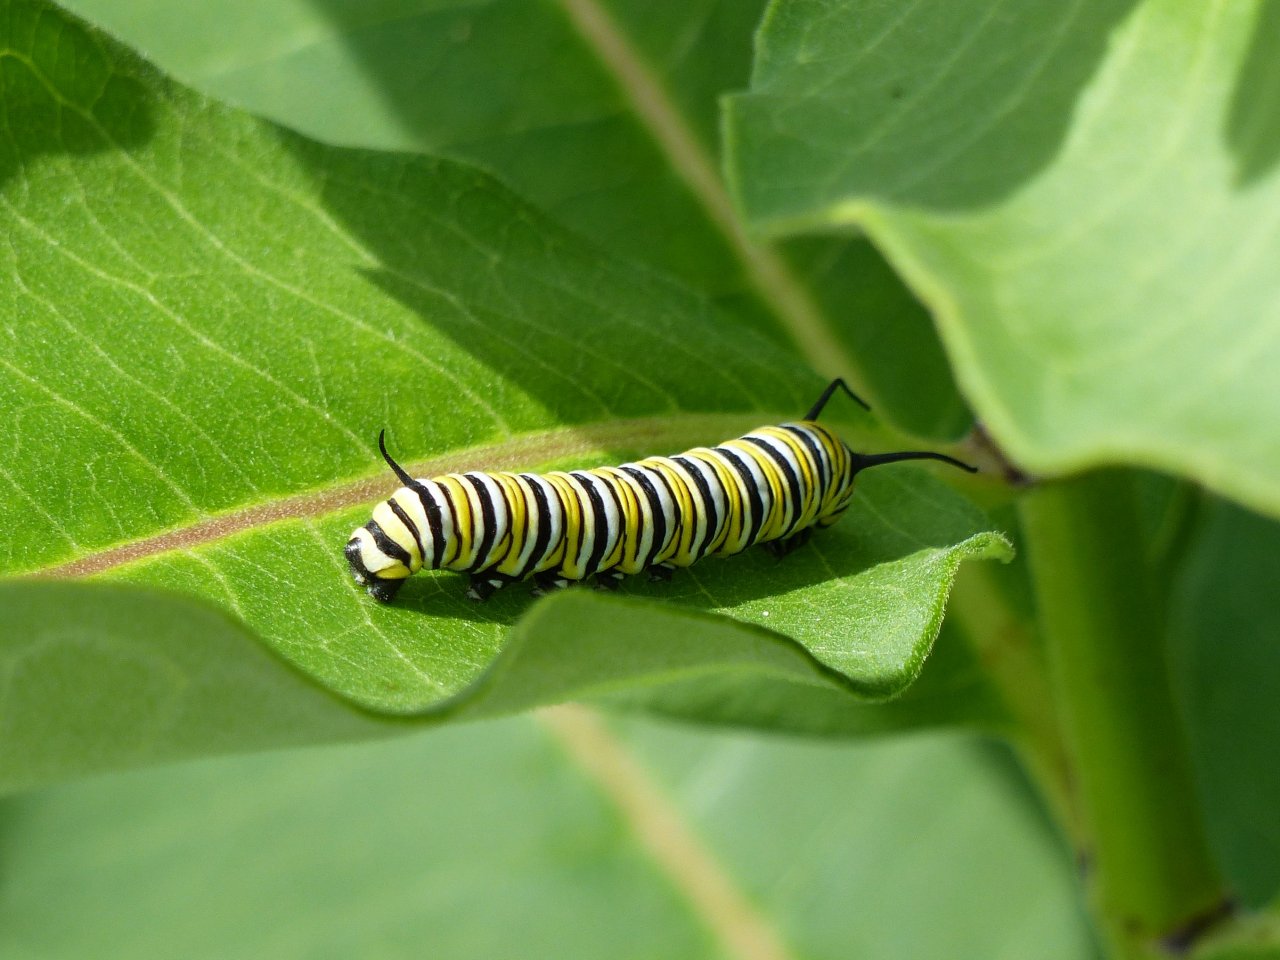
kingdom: Animalia
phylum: Arthropoda
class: Insecta
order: Lepidoptera
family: Nymphalidae
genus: Danaus
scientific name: Danaus plexippus
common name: Monarch
